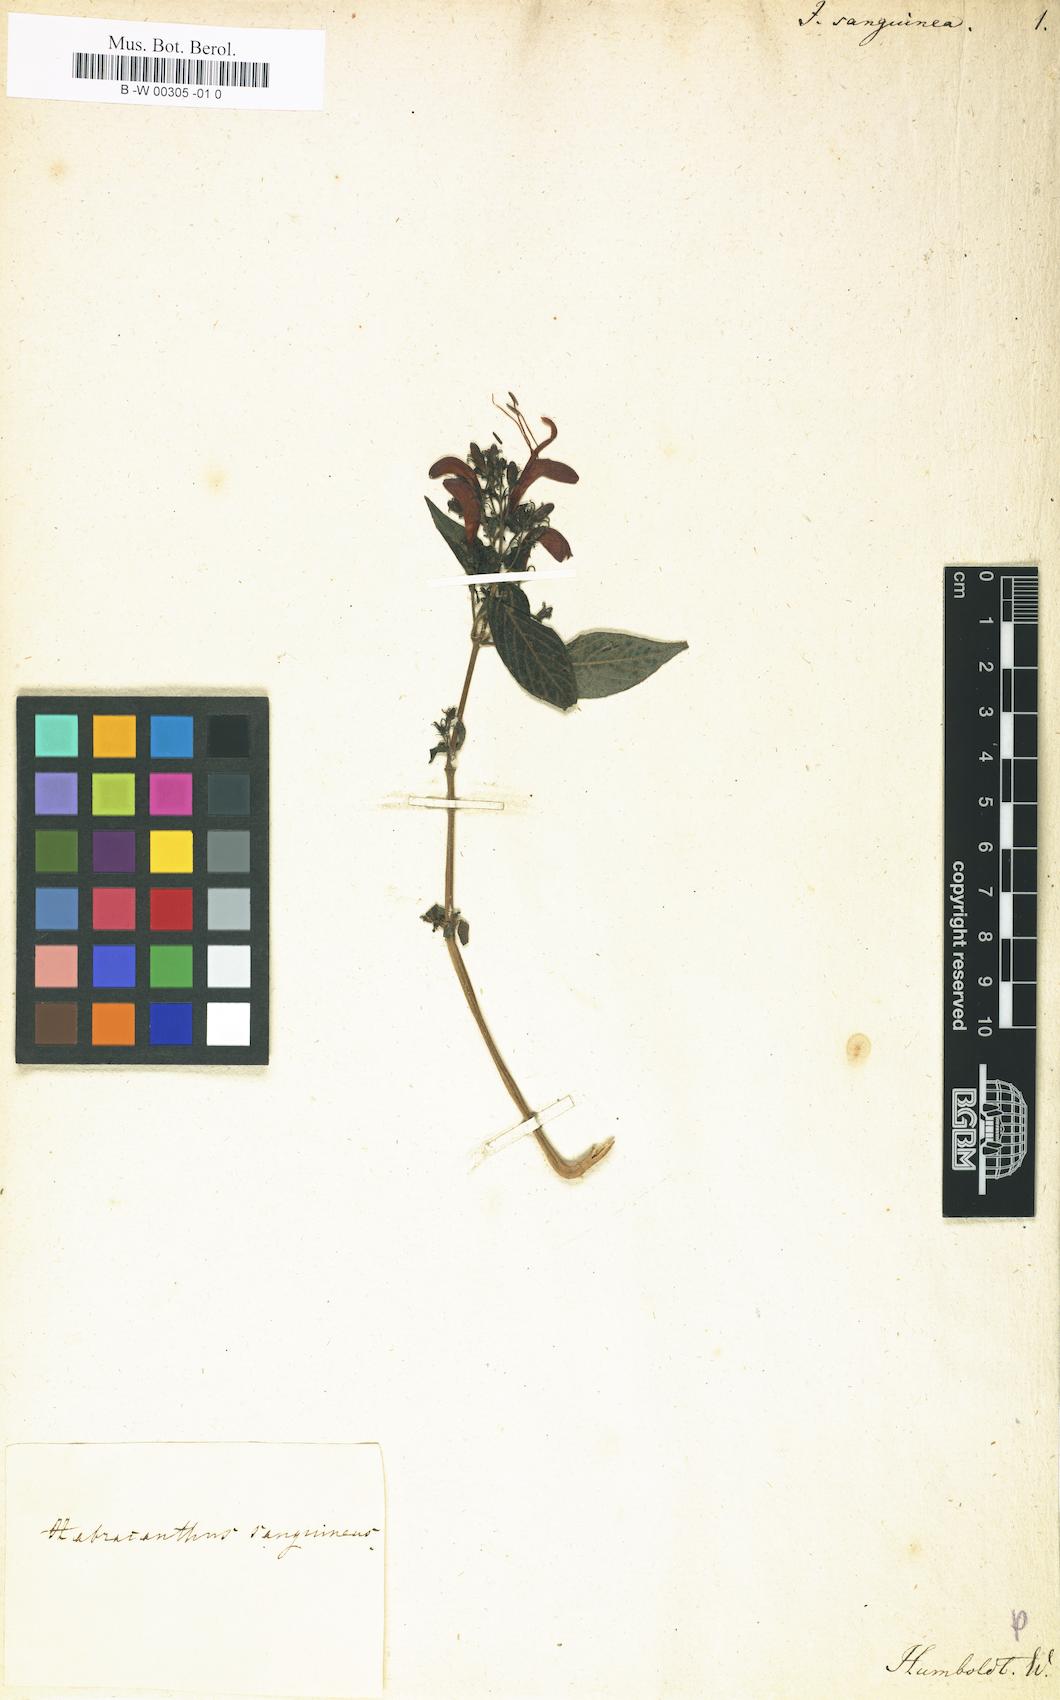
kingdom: Plantae
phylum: Tracheophyta
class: Magnoliopsida
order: Lamiales
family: Acanthaceae
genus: Stenostephanus
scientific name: Stenostephanus sanguineus
